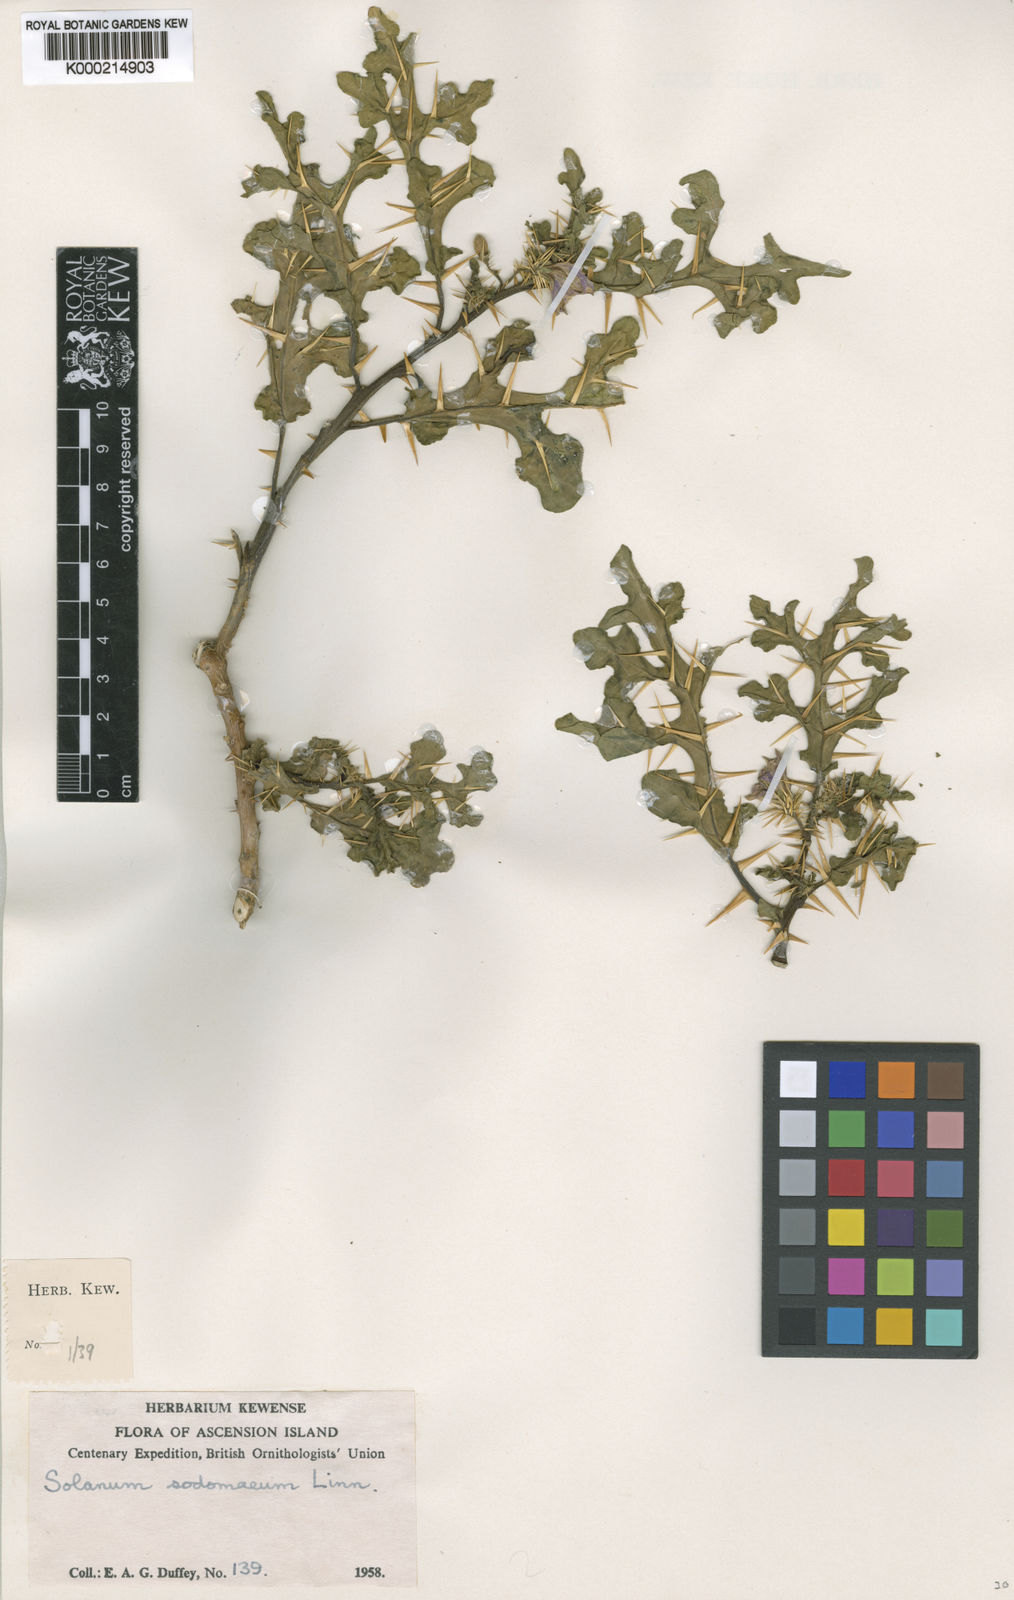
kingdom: Plantae
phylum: Tracheophyta
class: Magnoliopsida
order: Solanales
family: Solanaceae
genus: Solanum
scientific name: Solanum linnaeanum
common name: Nightshade
